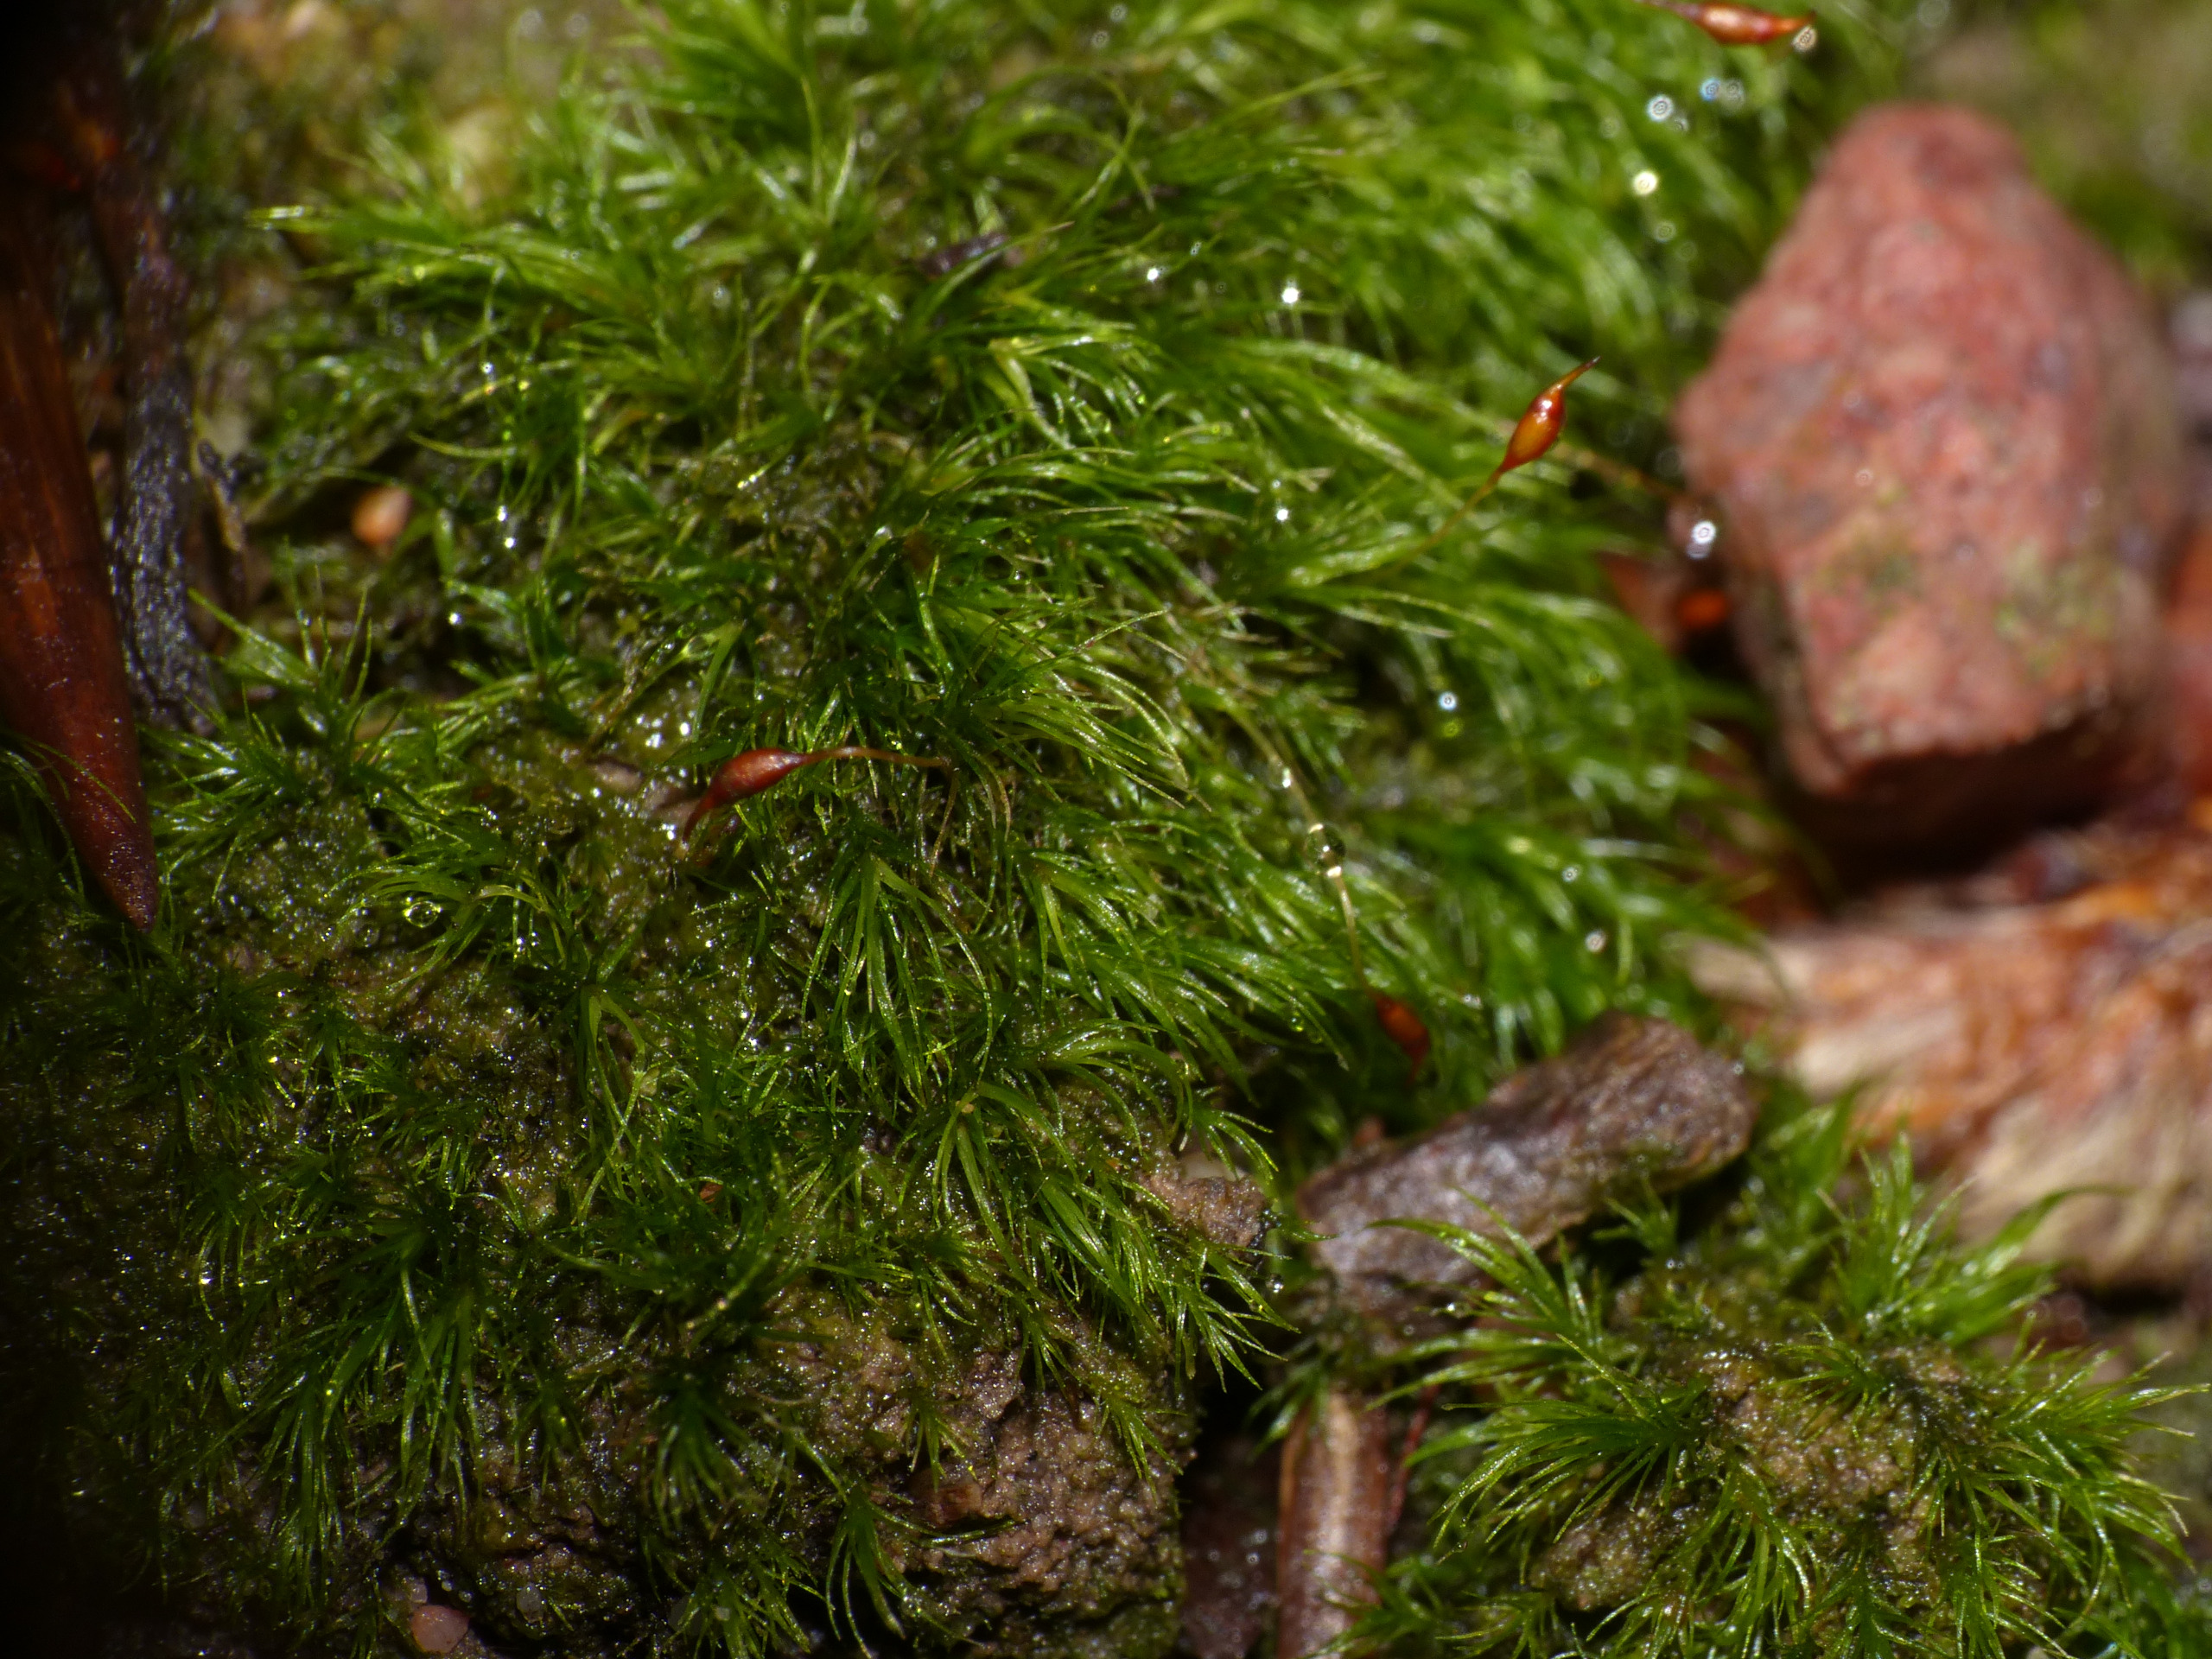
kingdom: Plantae
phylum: Bryophyta
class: Bryopsida
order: Dicranales
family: Dicranellaceae
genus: Dicranella
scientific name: Dicranella heteromalla
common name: Almindelig fløjlsmos
